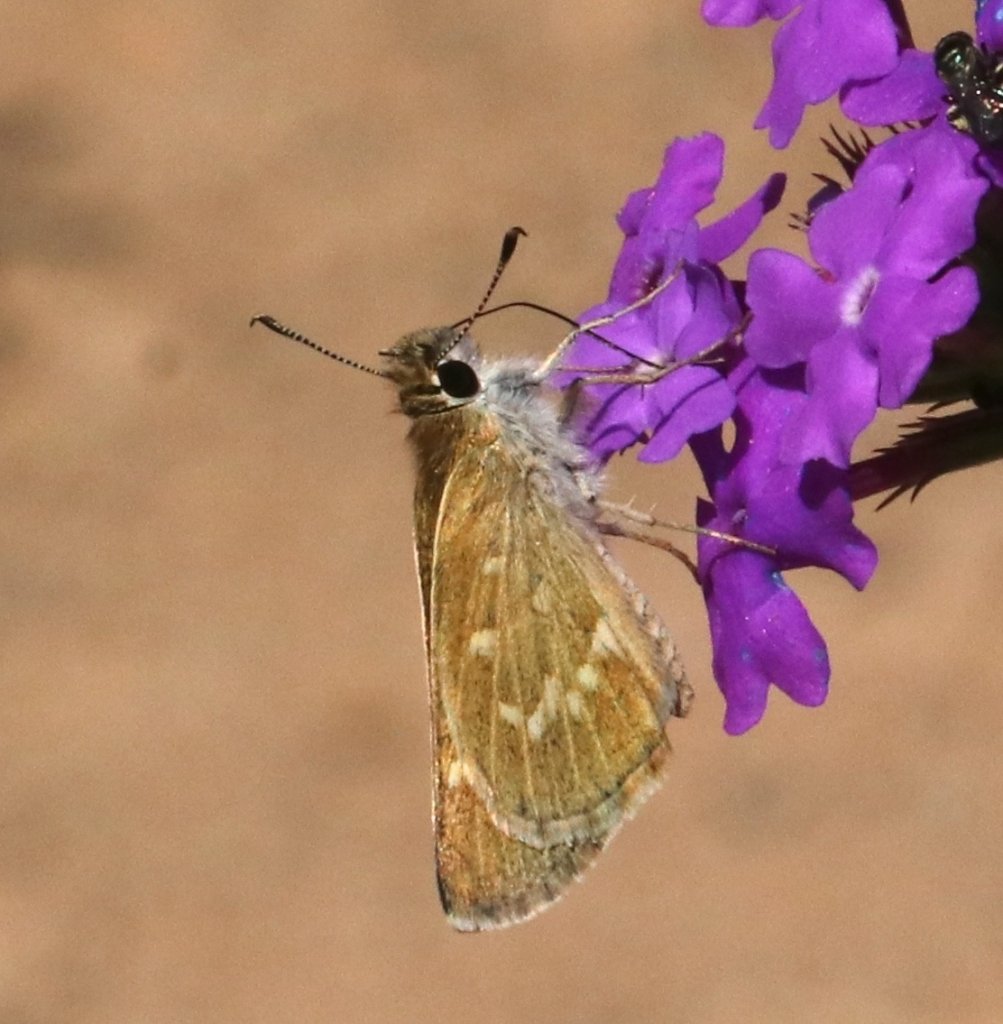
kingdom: Animalia
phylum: Arthropoda
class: Insecta
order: Lepidoptera
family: Hesperiidae
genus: Mastor
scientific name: Mastor nereus
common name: Slaty Roadside-Skipper
